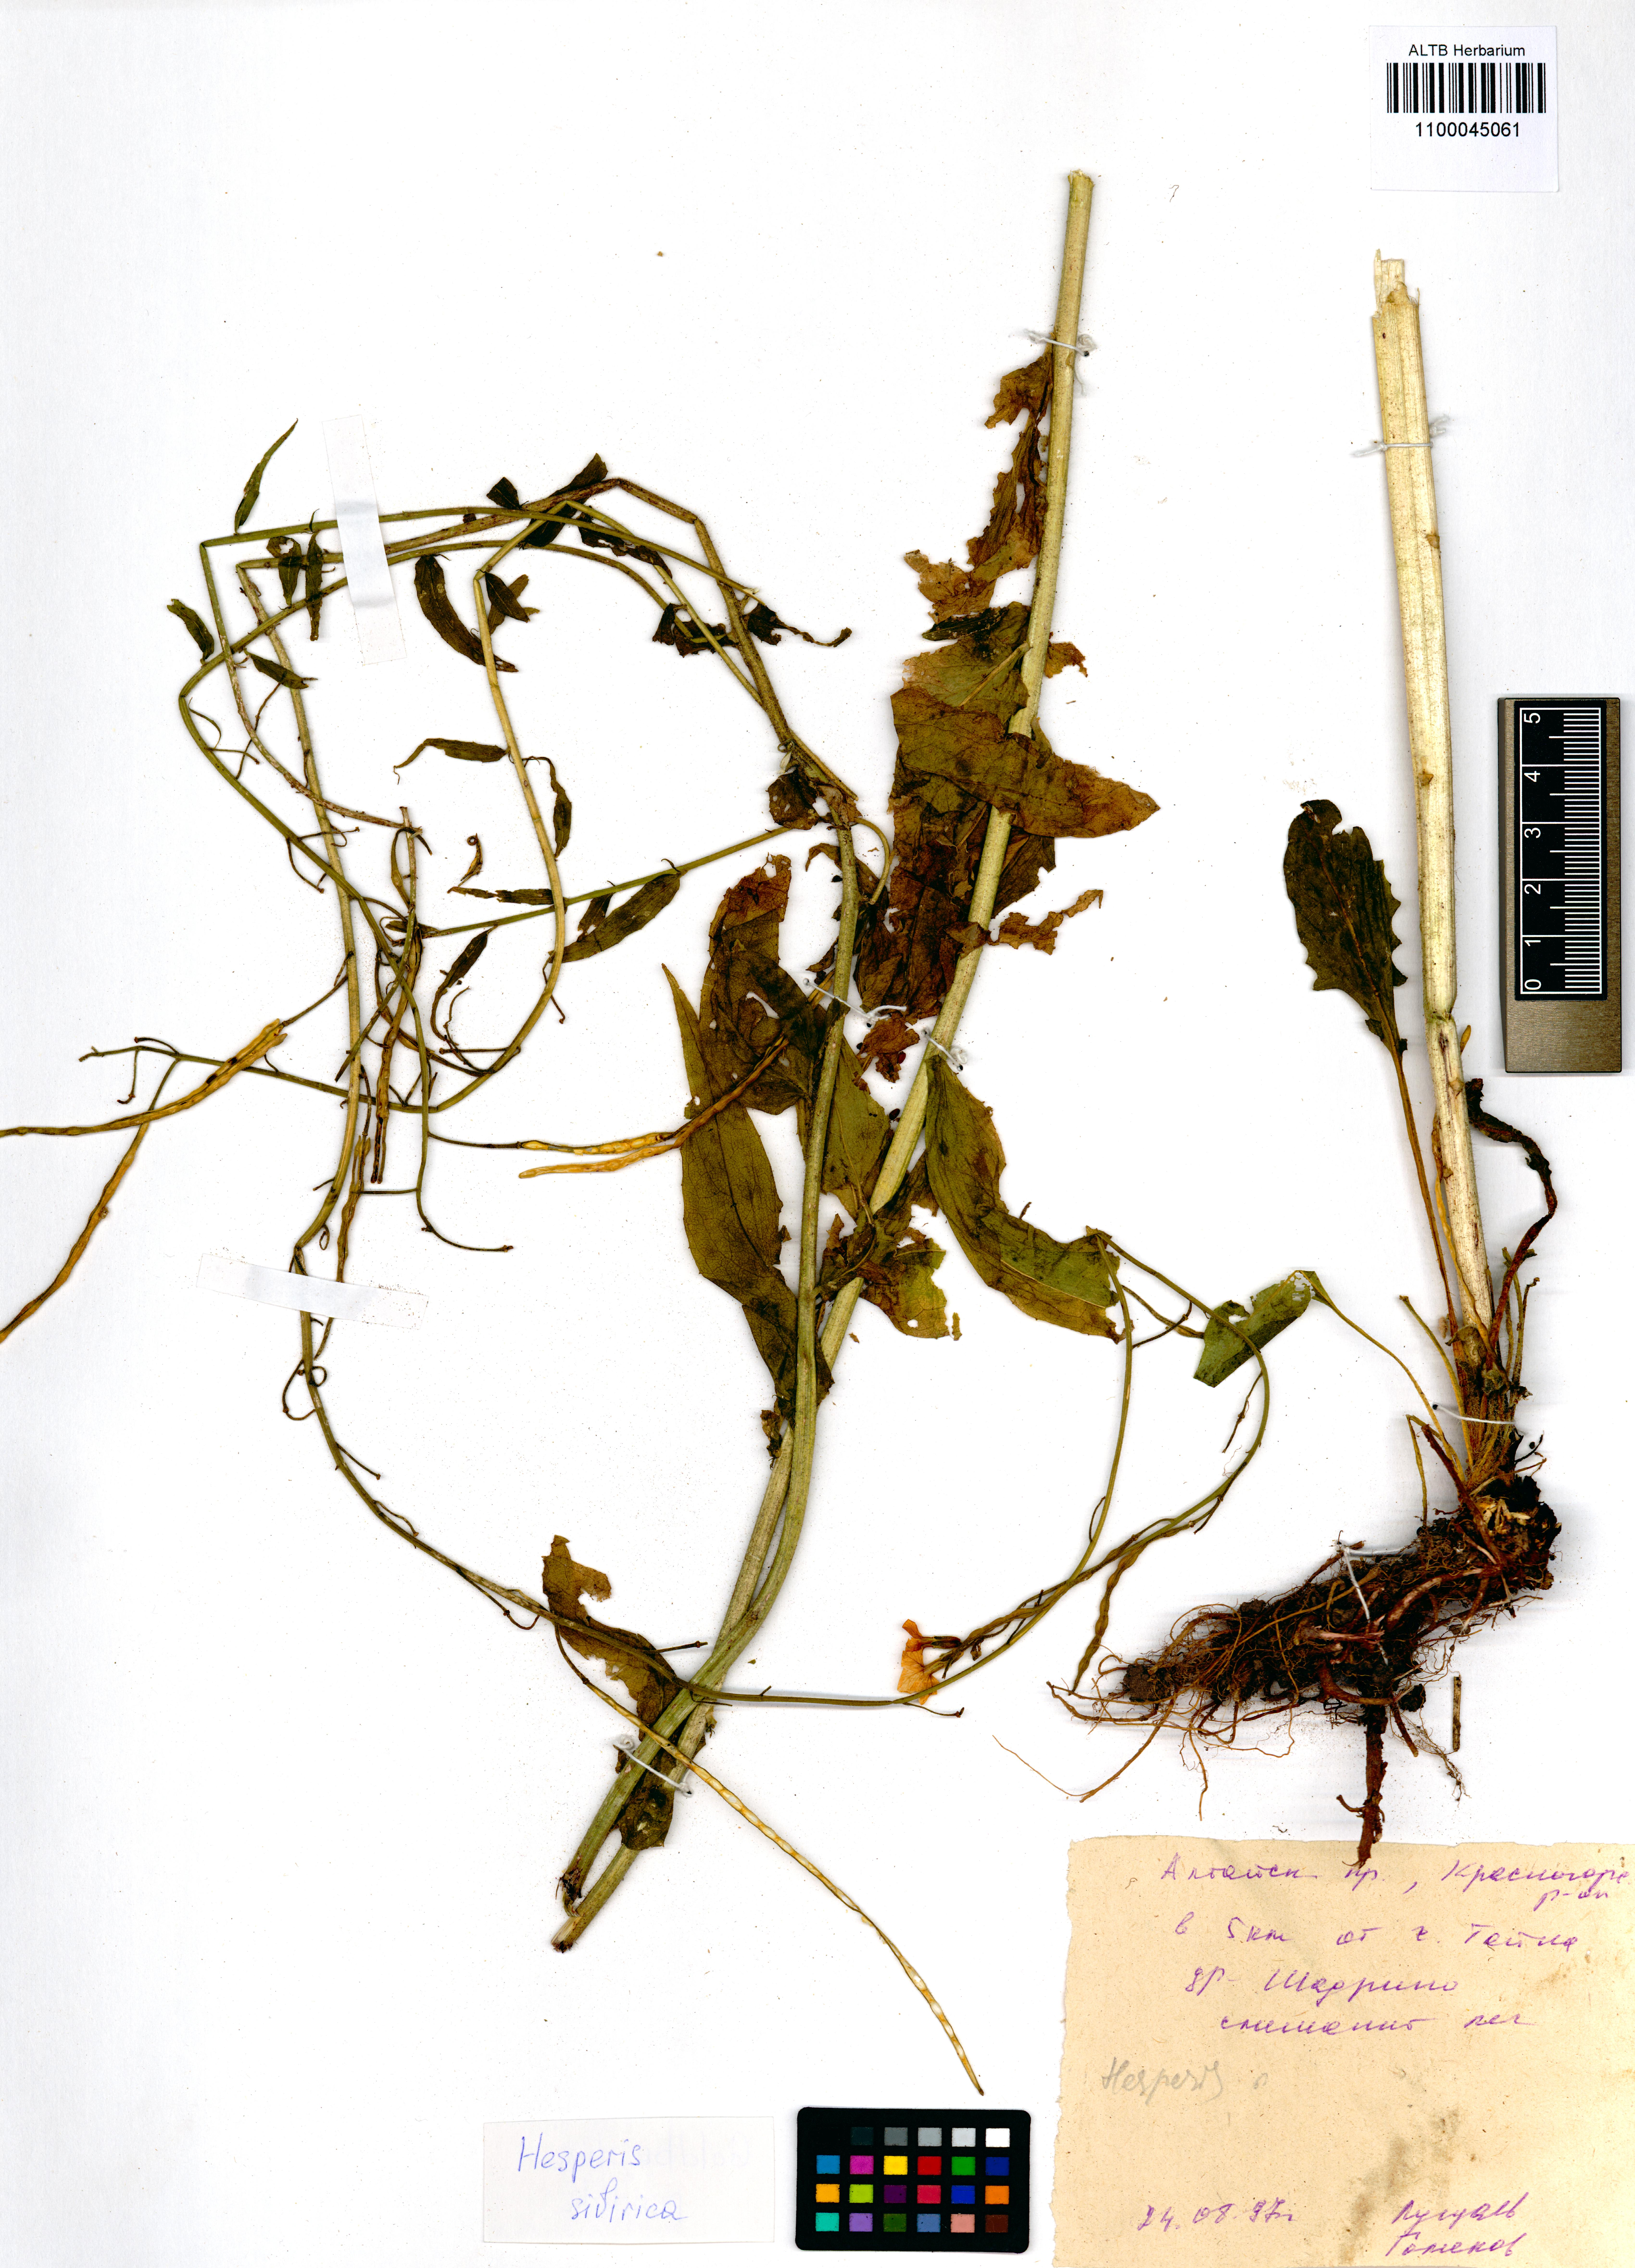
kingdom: Plantae
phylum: Tracheophyta
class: Magnoliopsida
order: Brassicales
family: Brassicaceae
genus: Hesperis
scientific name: Hesperis sibirica
